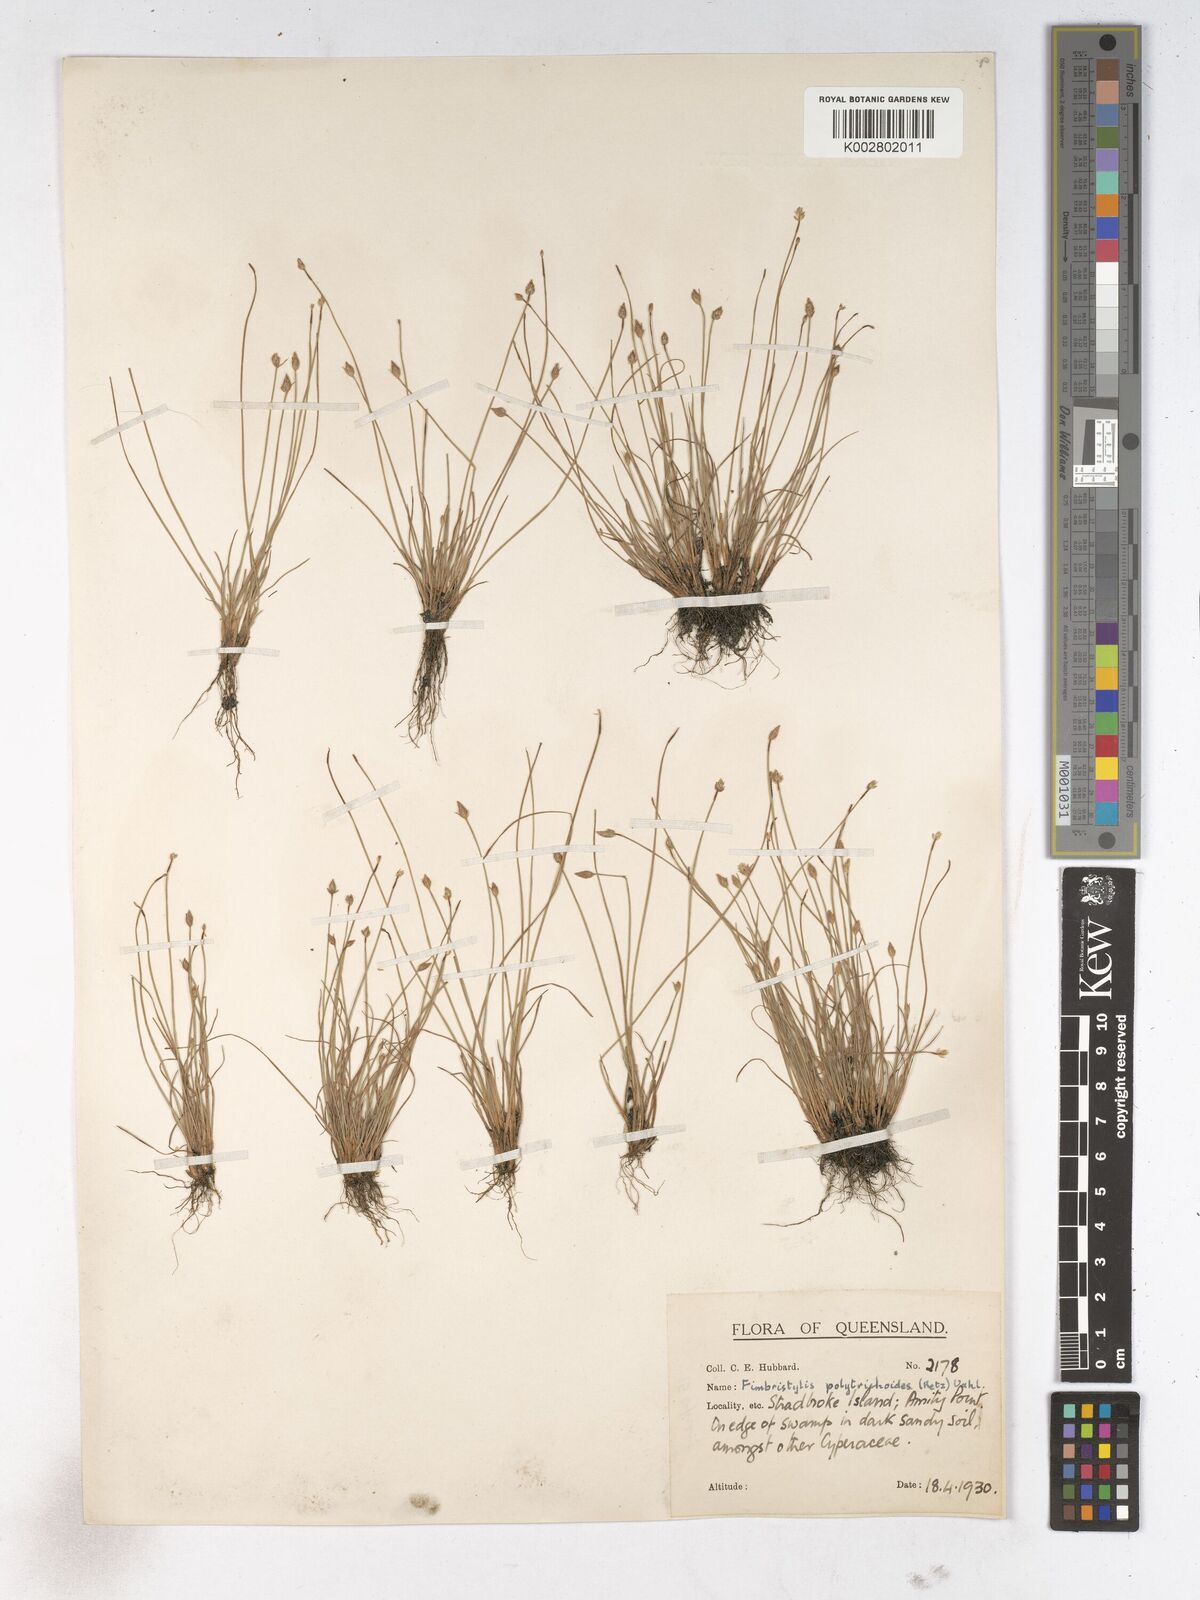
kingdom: Plantae
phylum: Tracheophyta
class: Liliopsida
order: Poales
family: Cyperaceae
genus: Fimbristylis
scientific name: Fimbristylis polytrichoides
